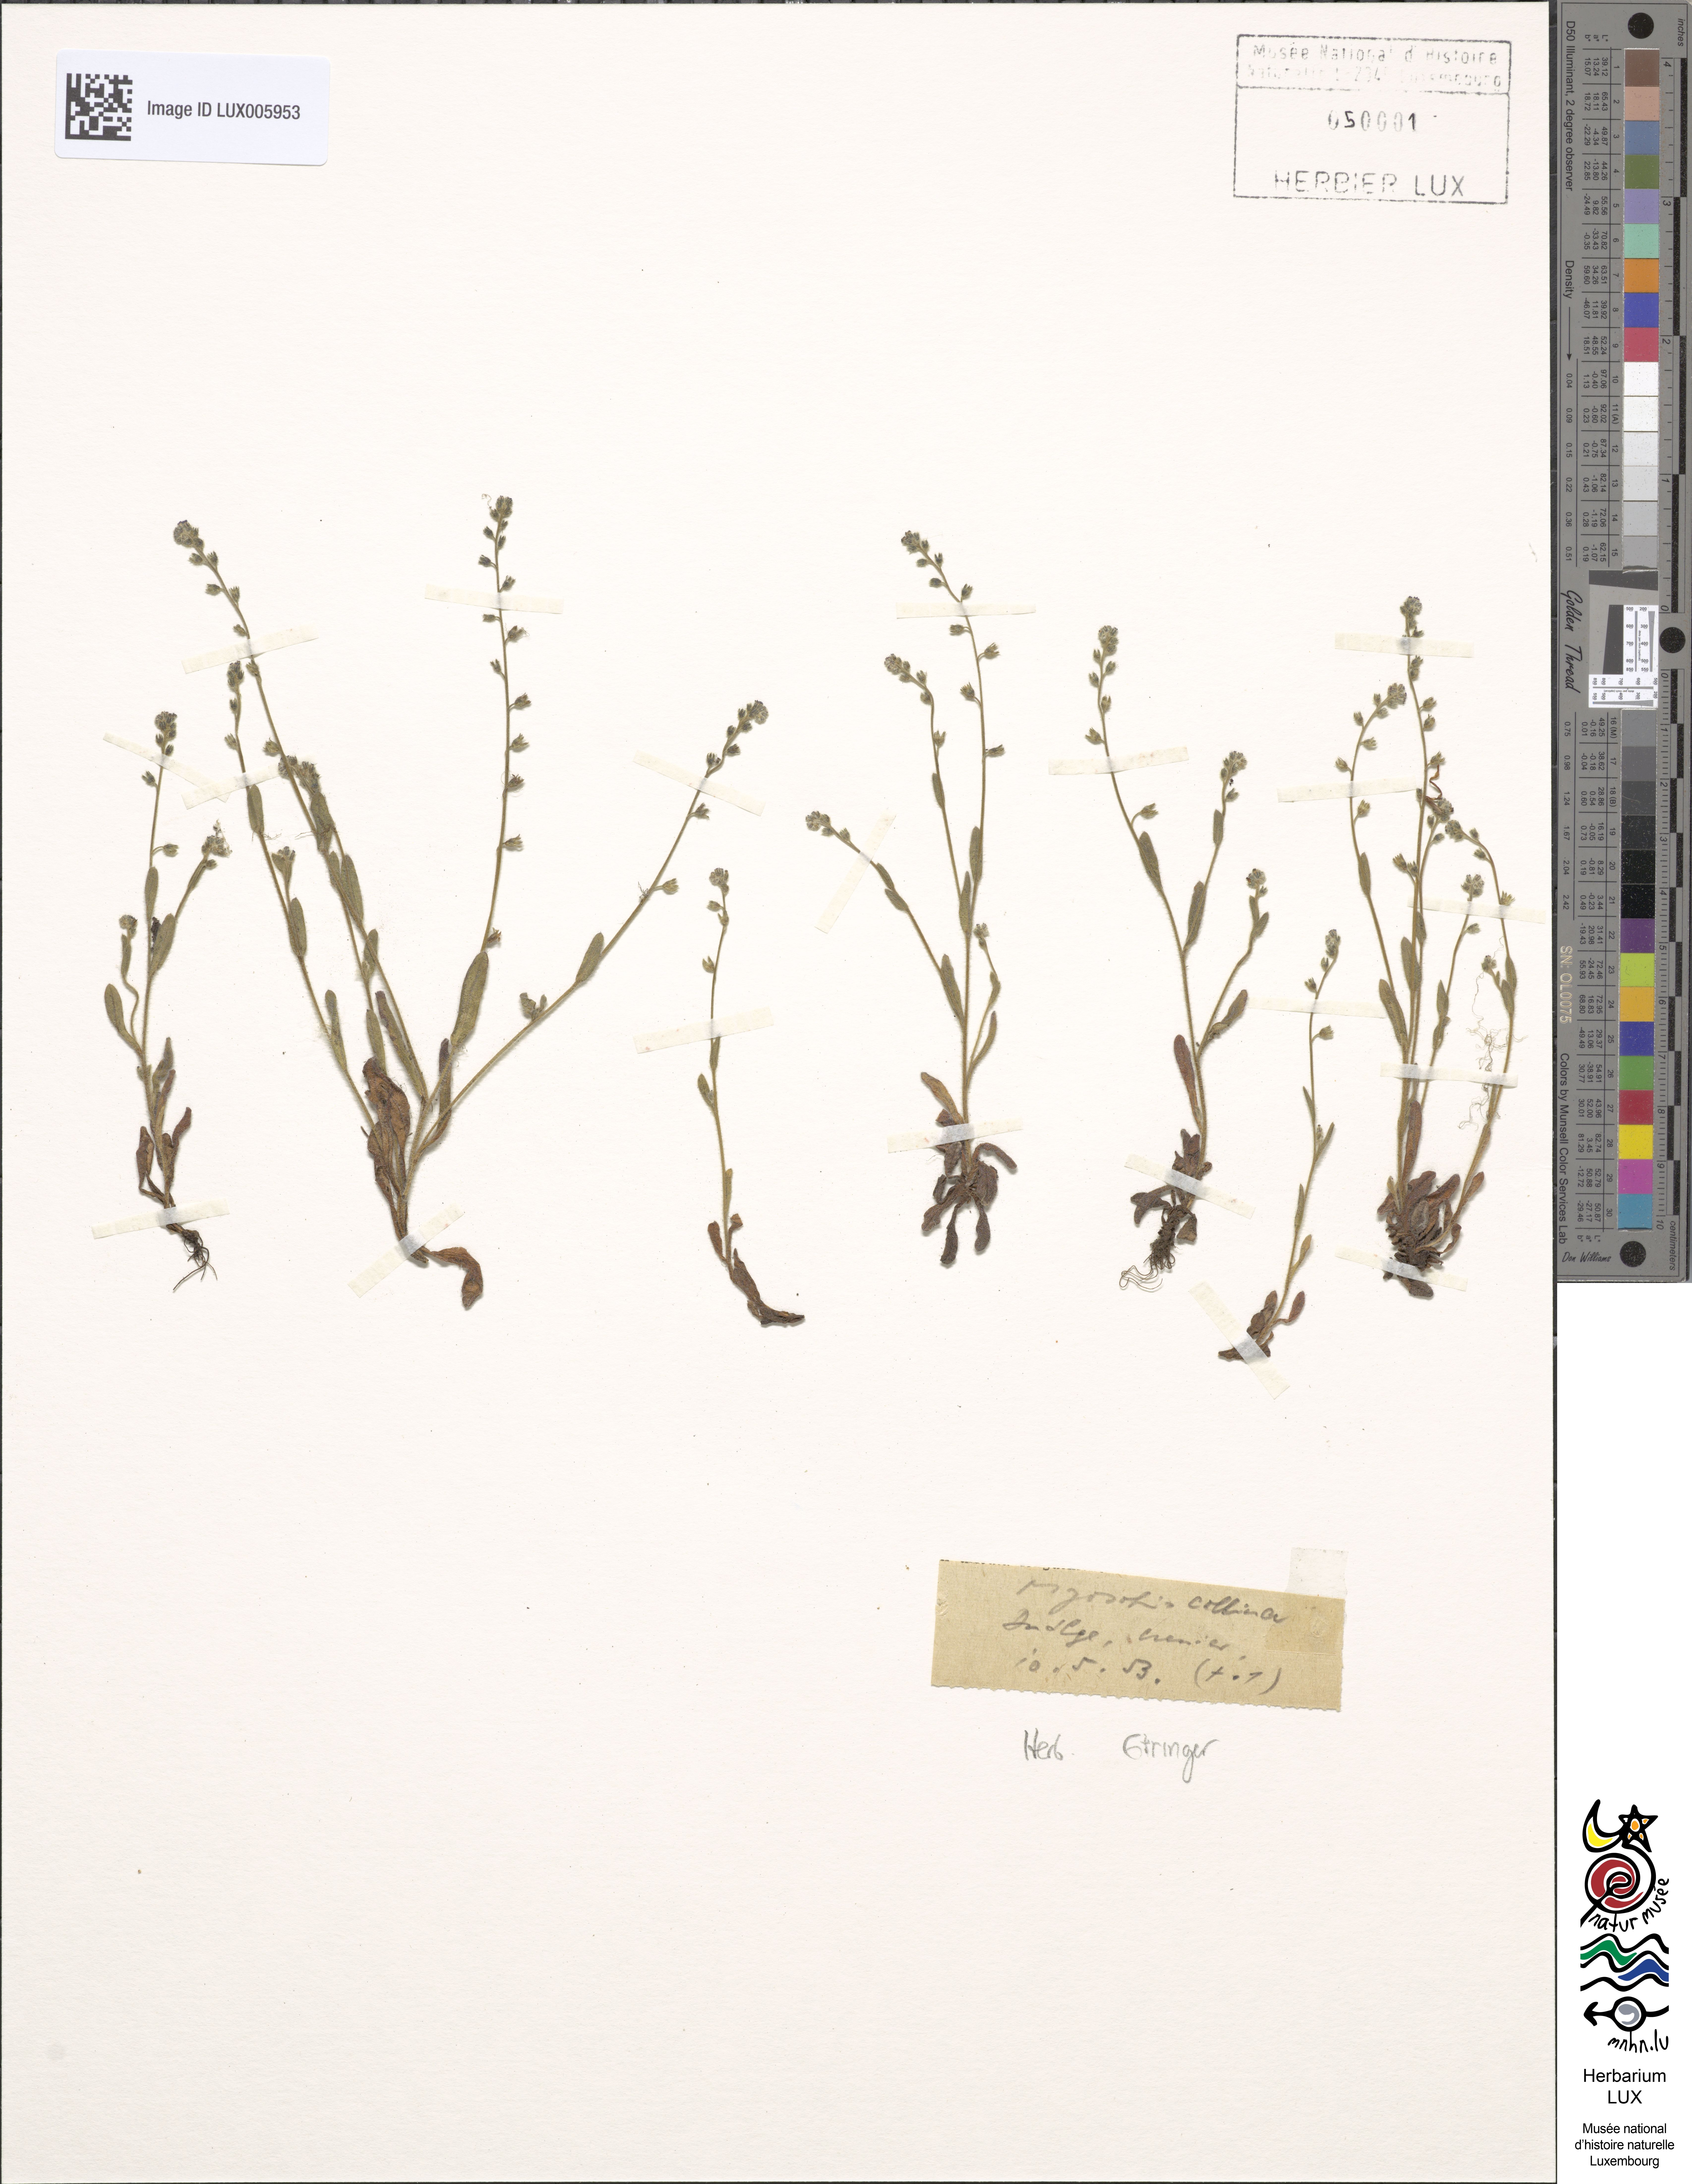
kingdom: Plantae
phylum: Tracheophyta
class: Magnoliopsida
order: Boraginales
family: Boraginaceae
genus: Myosotis
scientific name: Myosotis ramosissima
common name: Early forget-me-not
